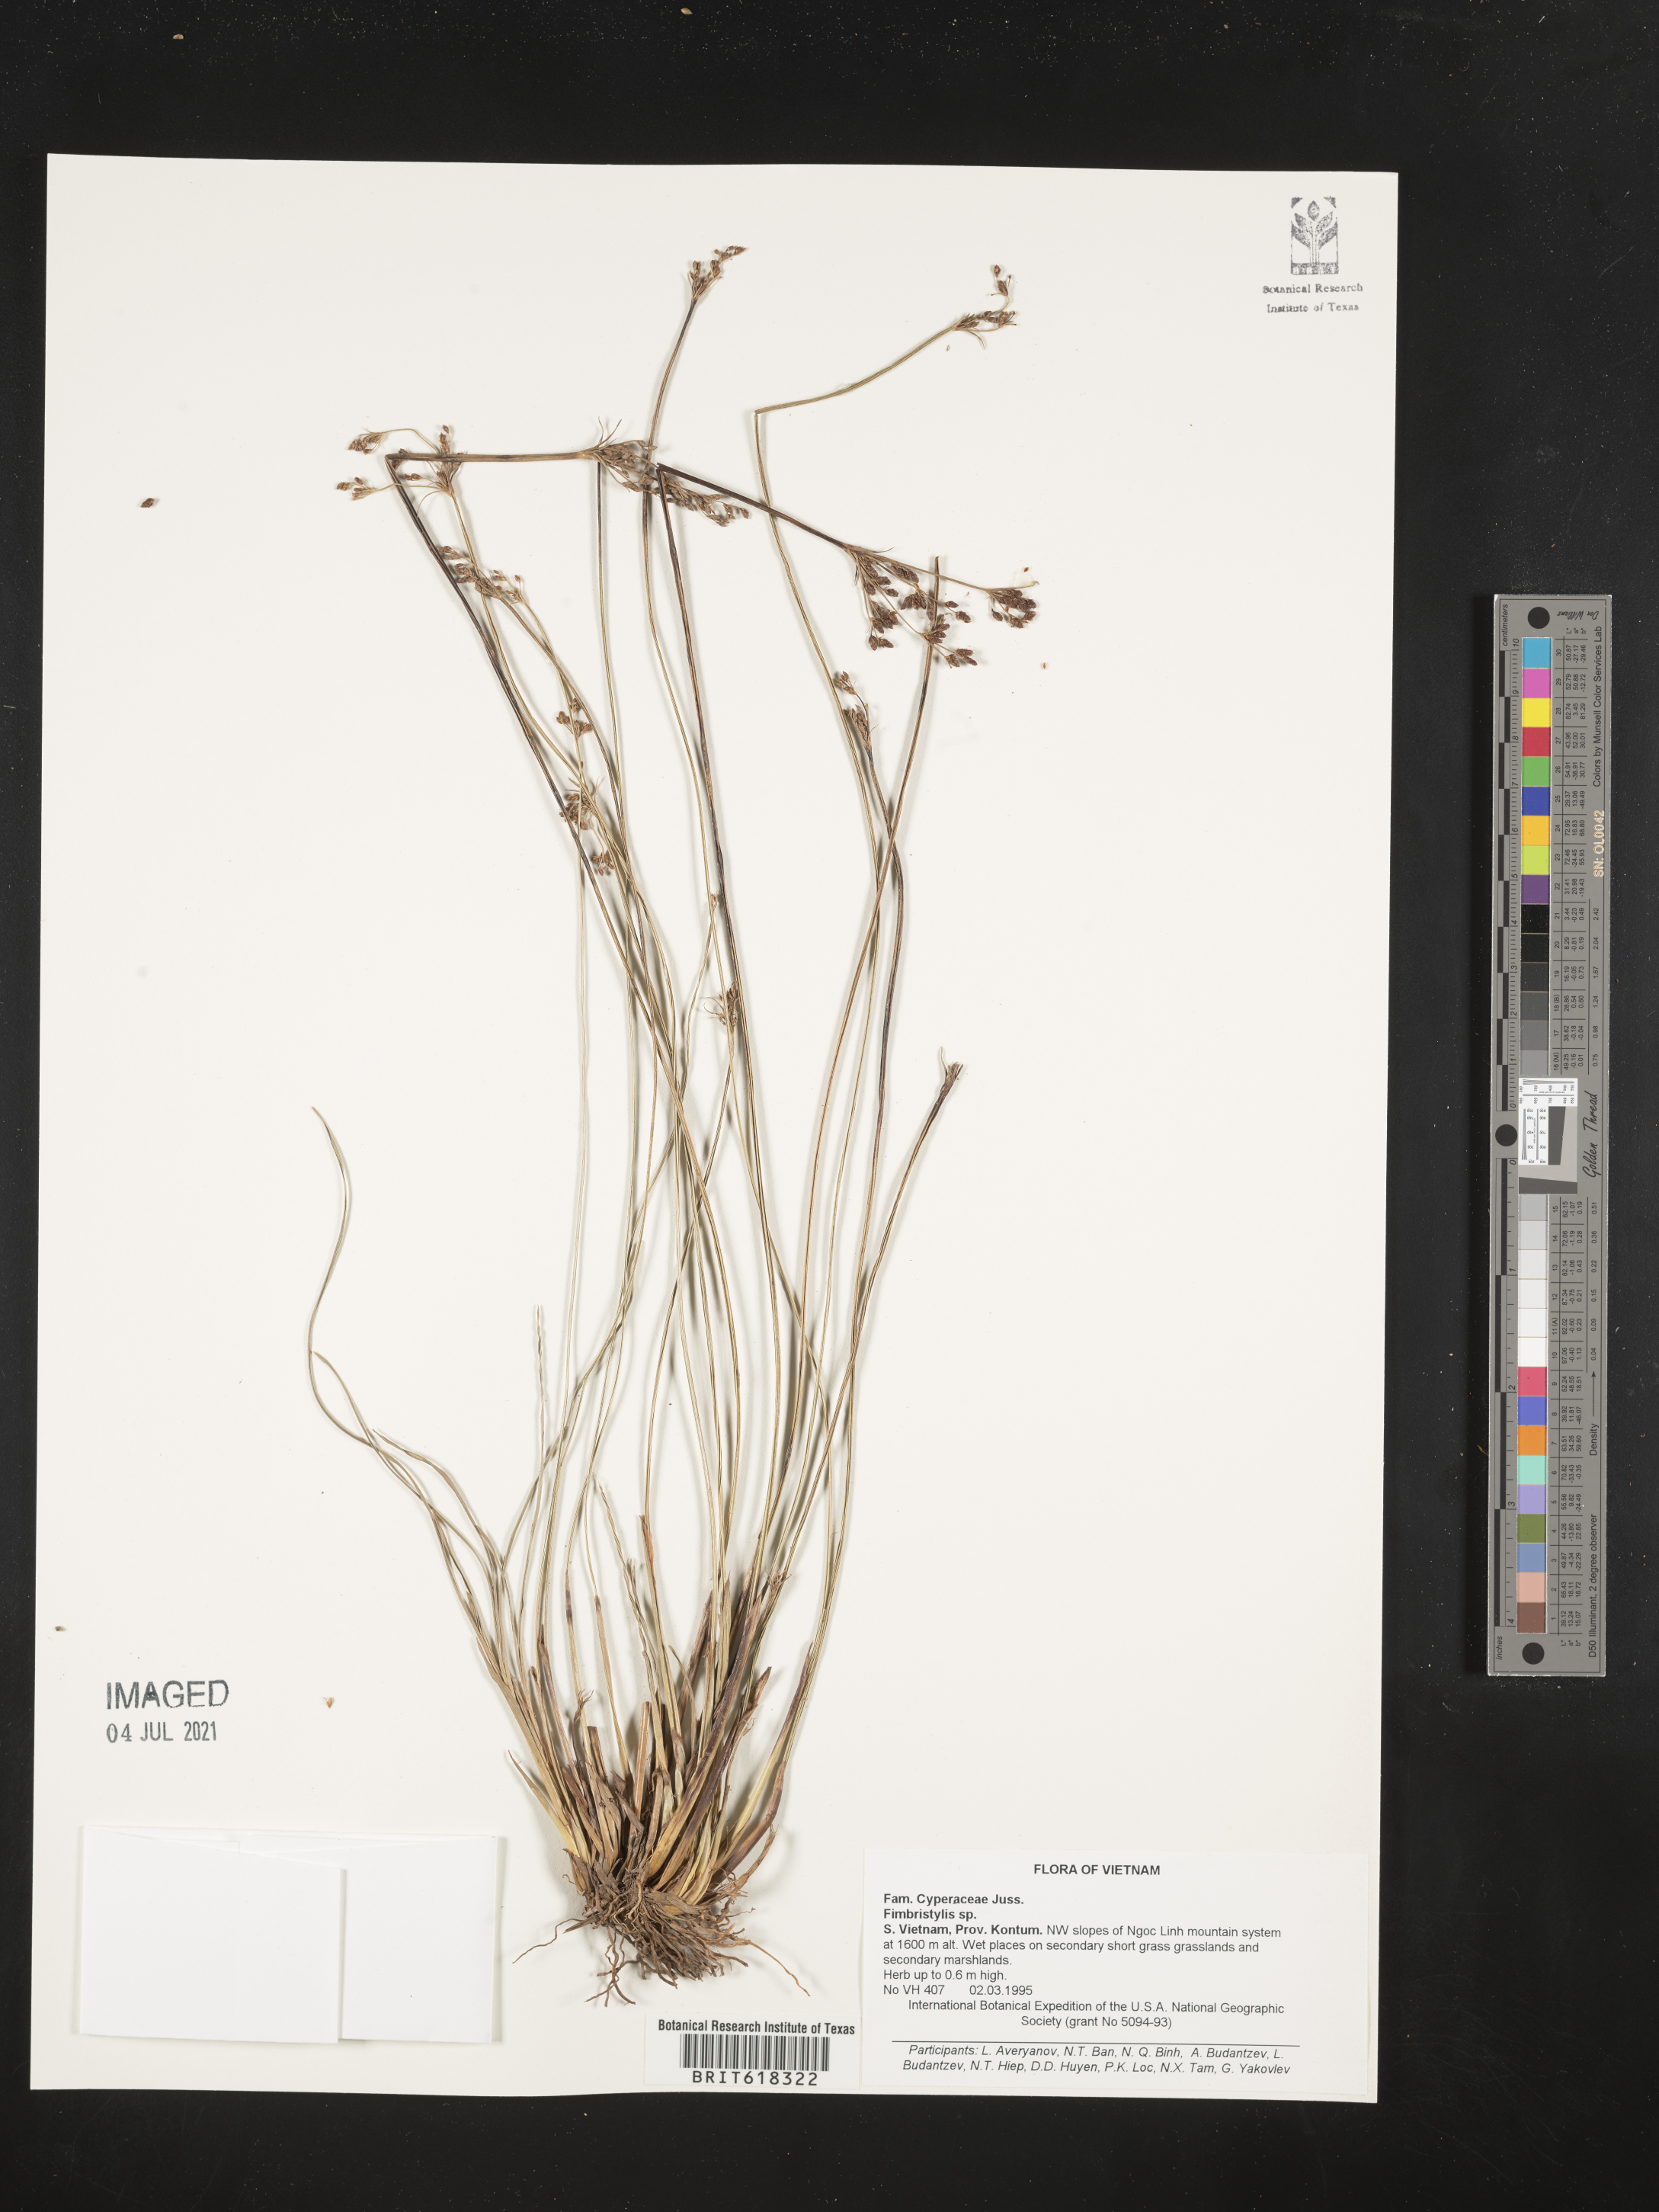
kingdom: Plantae
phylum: Tracheophyta
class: Liliopsida
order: Poales
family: Cyperaceae
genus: Fimbristylis
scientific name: Fimbristylis
